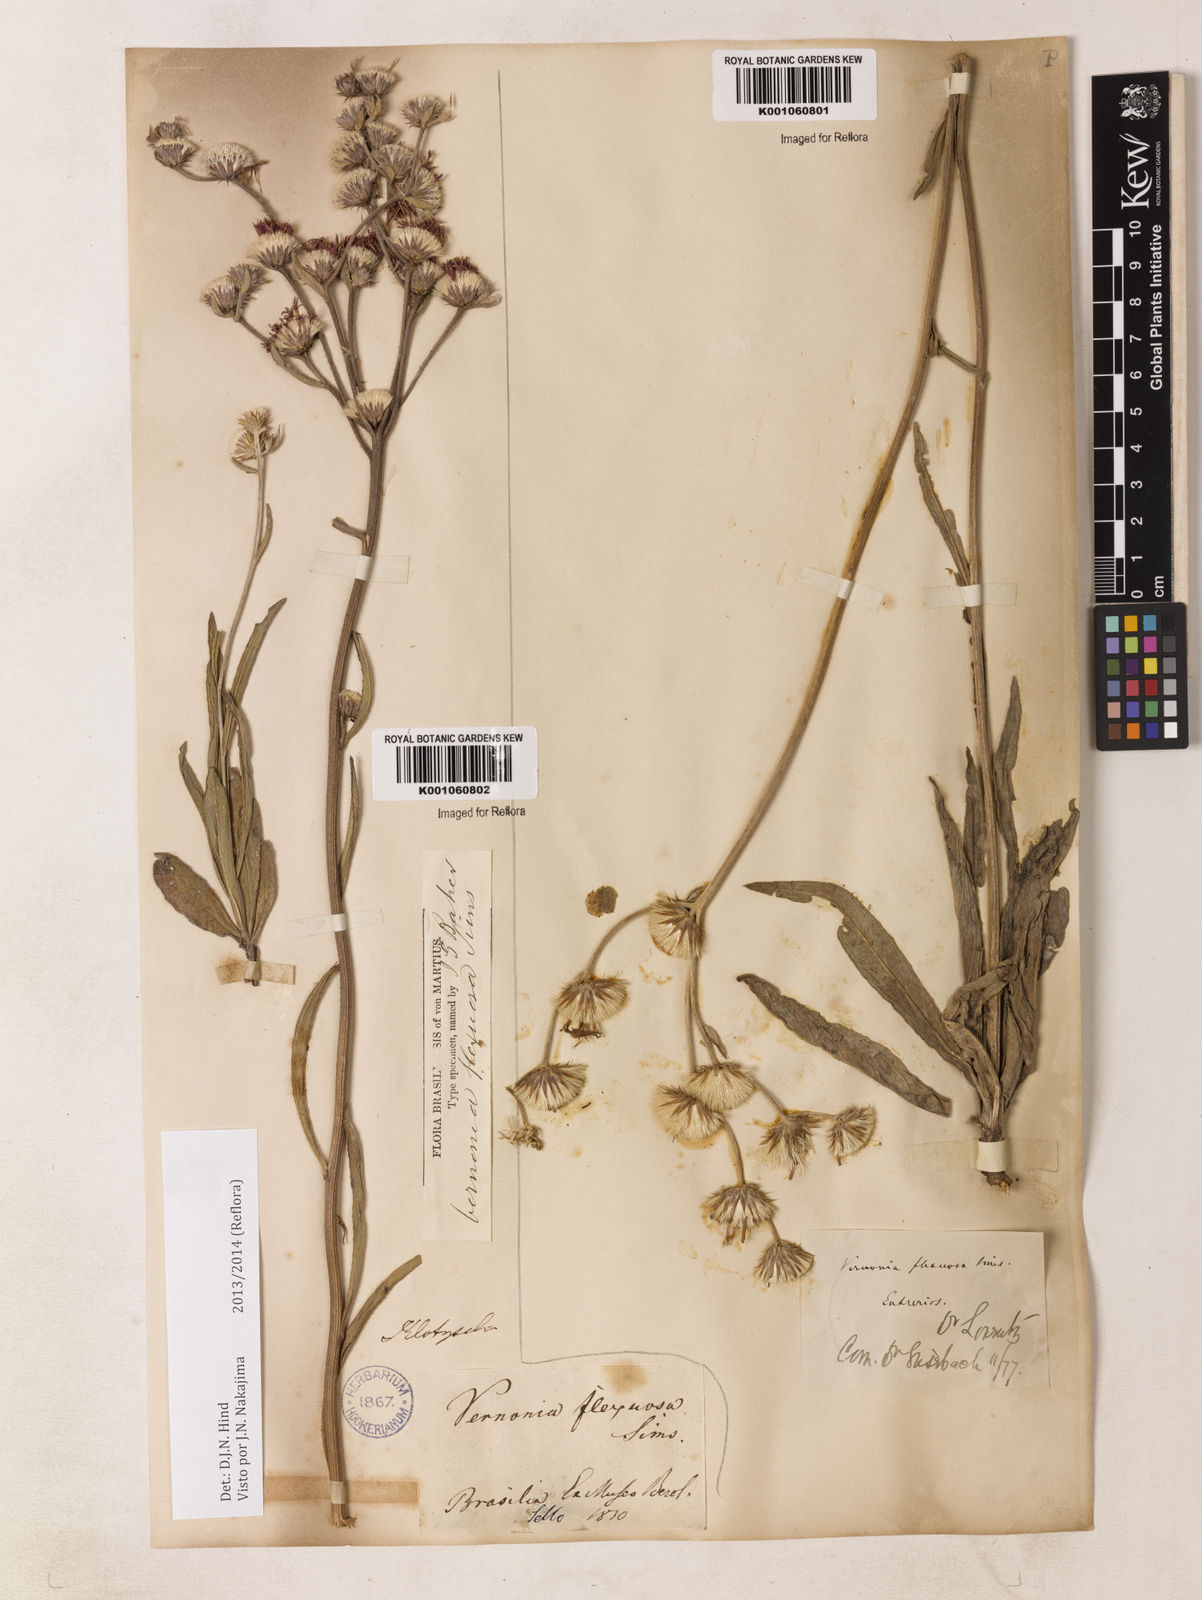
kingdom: Plantae
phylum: Tracheophyta
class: Magnoliopsida
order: Asterales
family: Asteraceae
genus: Chrysolaena
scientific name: Chrysolaena flexuosa
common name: Zig-zag vernonia
